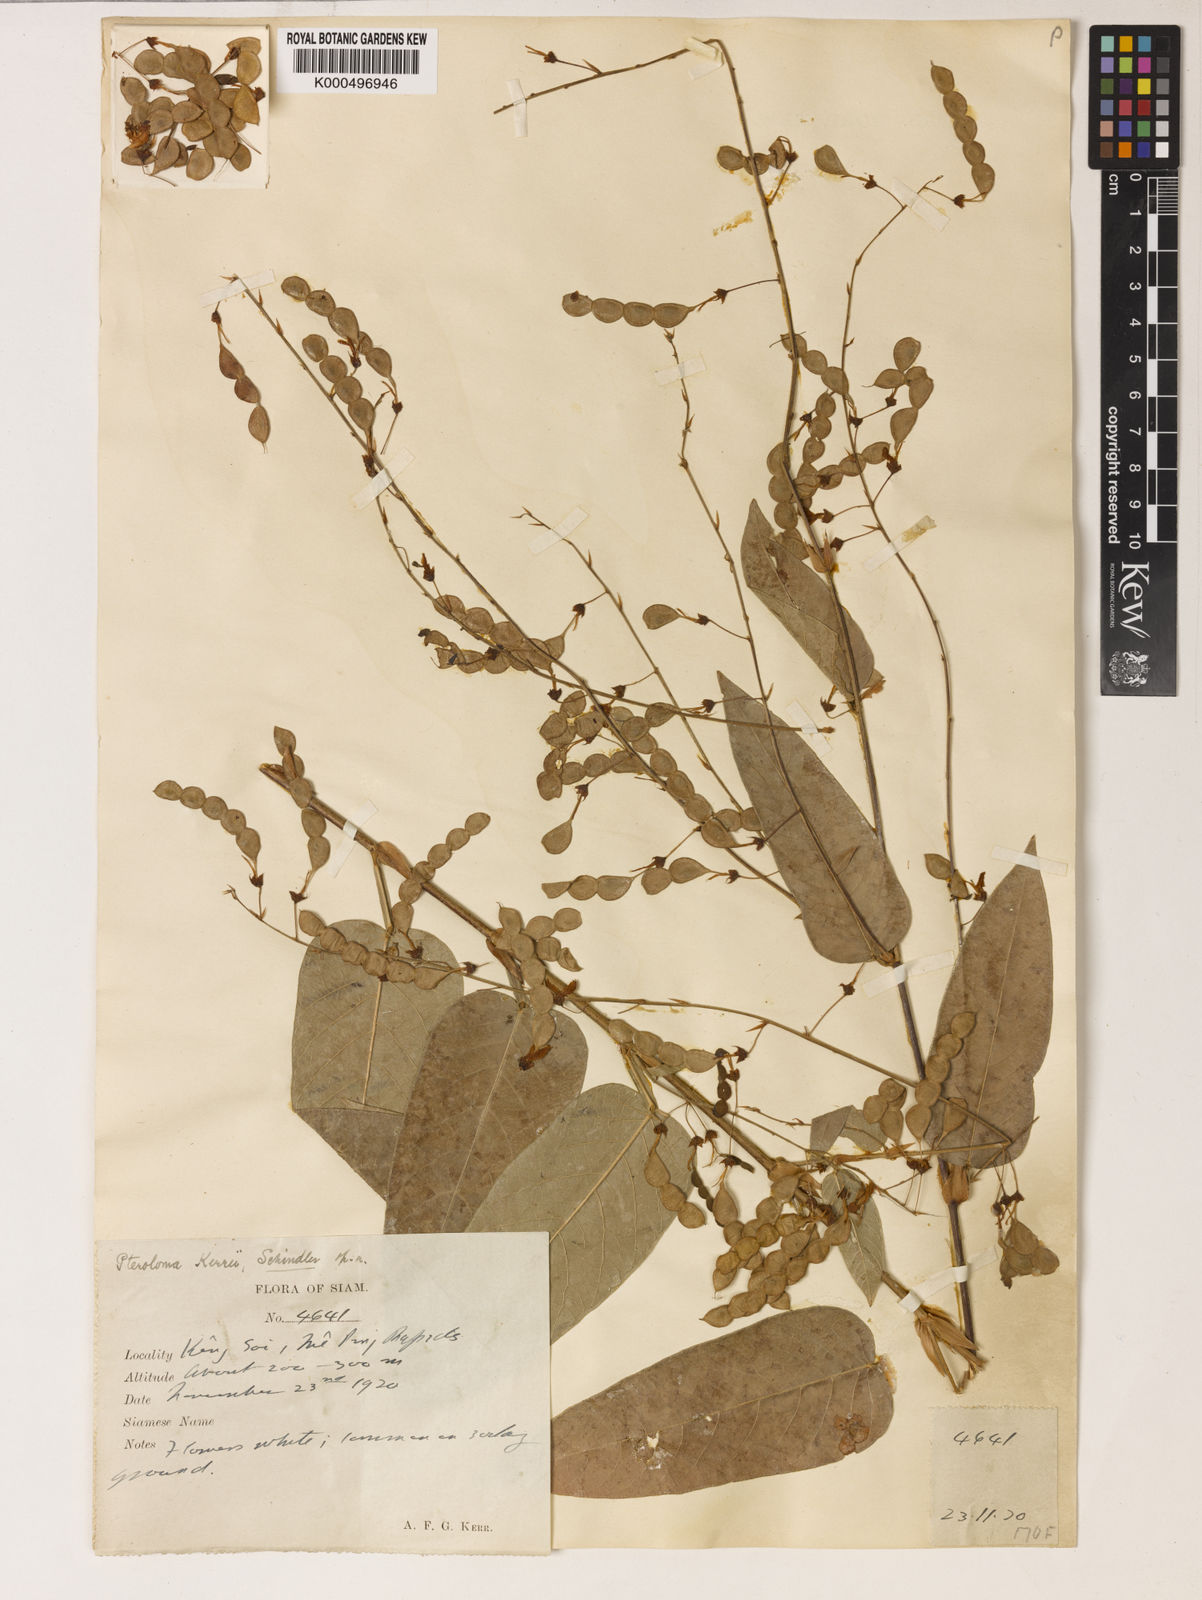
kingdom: Plantae
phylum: Tracheophyta
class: Magnoliopsida
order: Fabales
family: Fabaceae
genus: Tadehagi
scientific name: Tadehagi rodgeri
